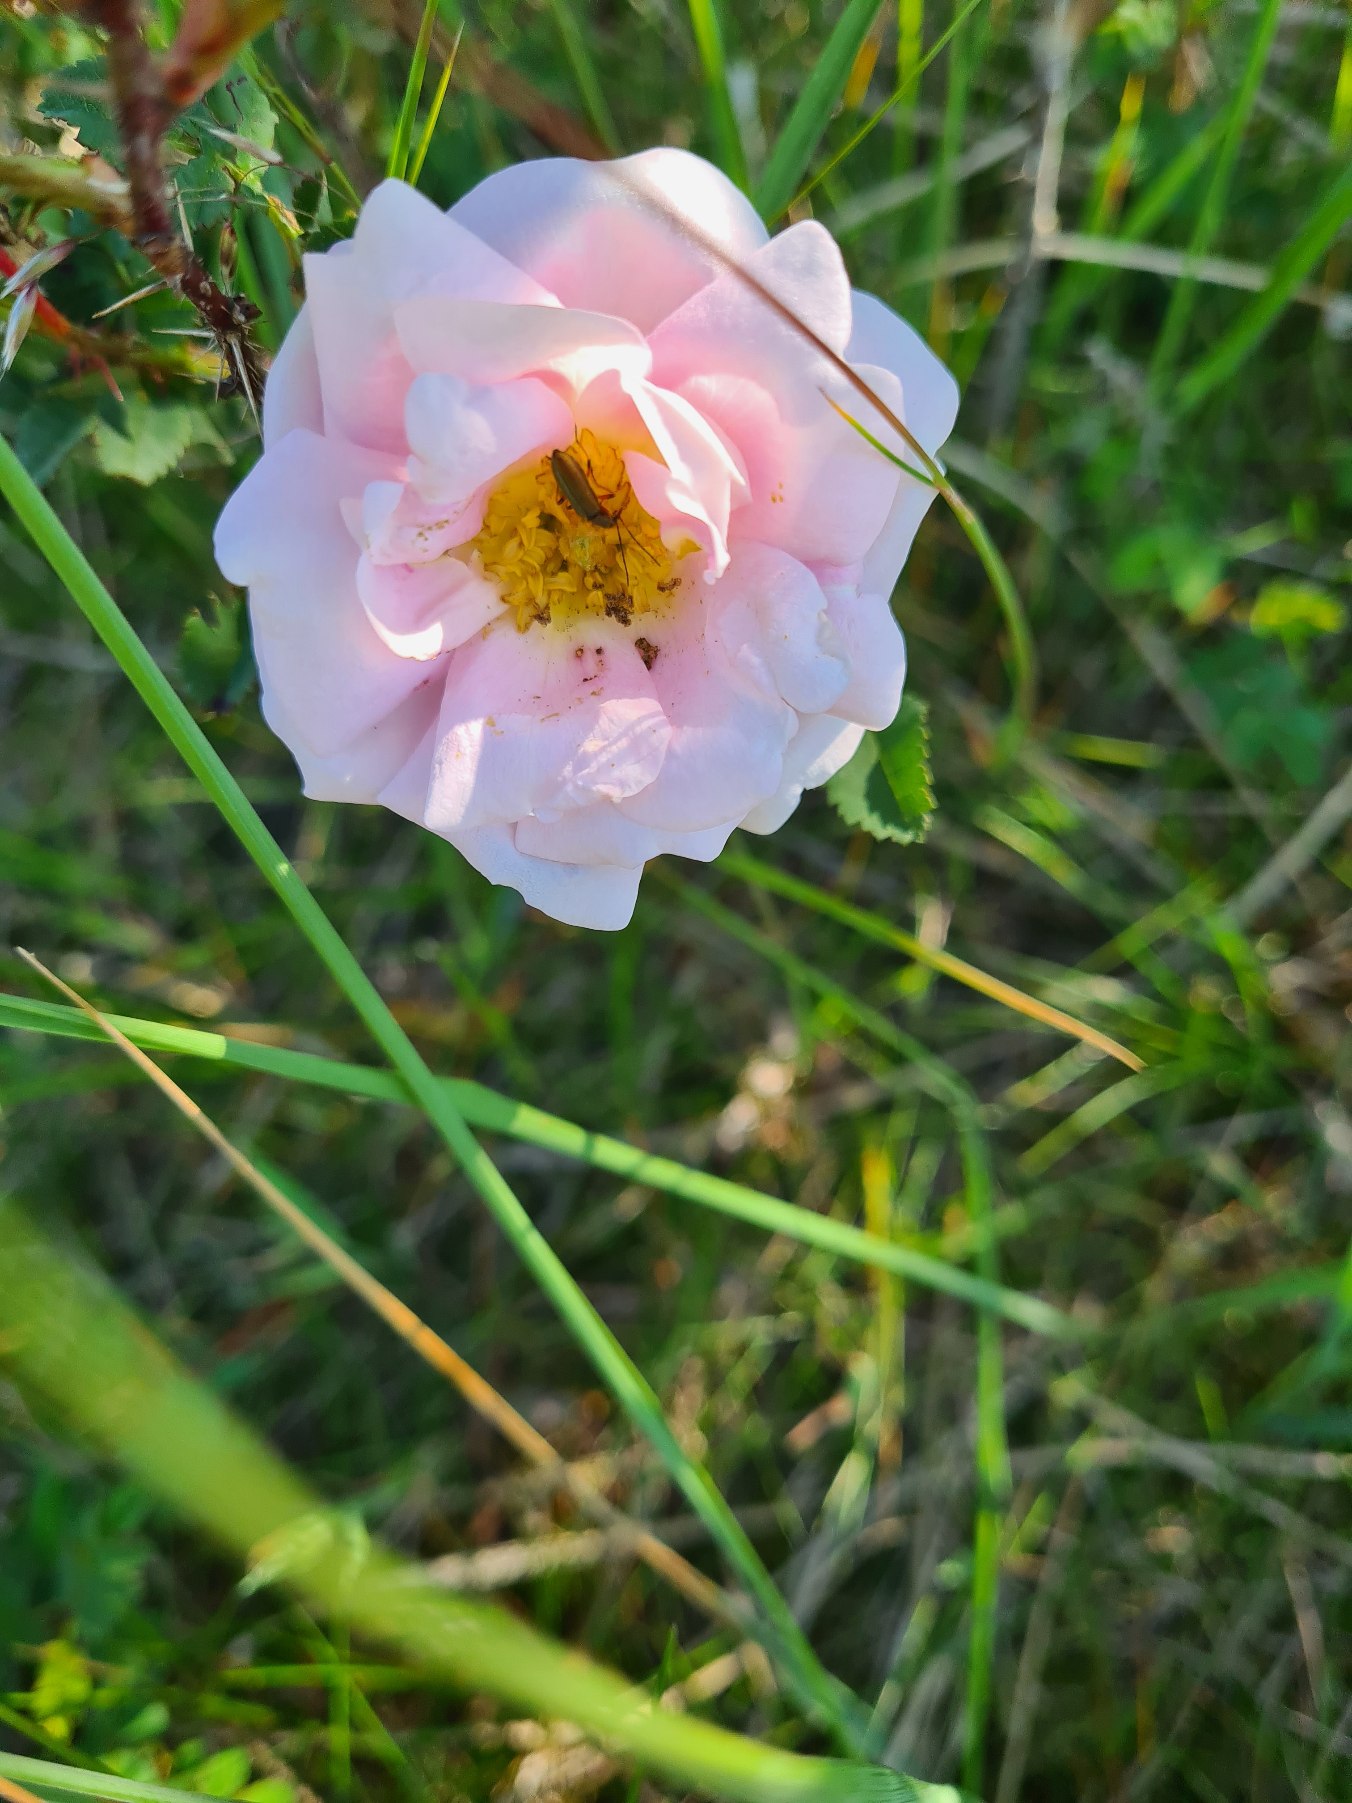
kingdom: Plantae
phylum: Tracheophyta
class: Magnoliopsida
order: Rosales
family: Rosaceae
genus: Rosa
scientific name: Rosa spinosissima
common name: Klit-rose
